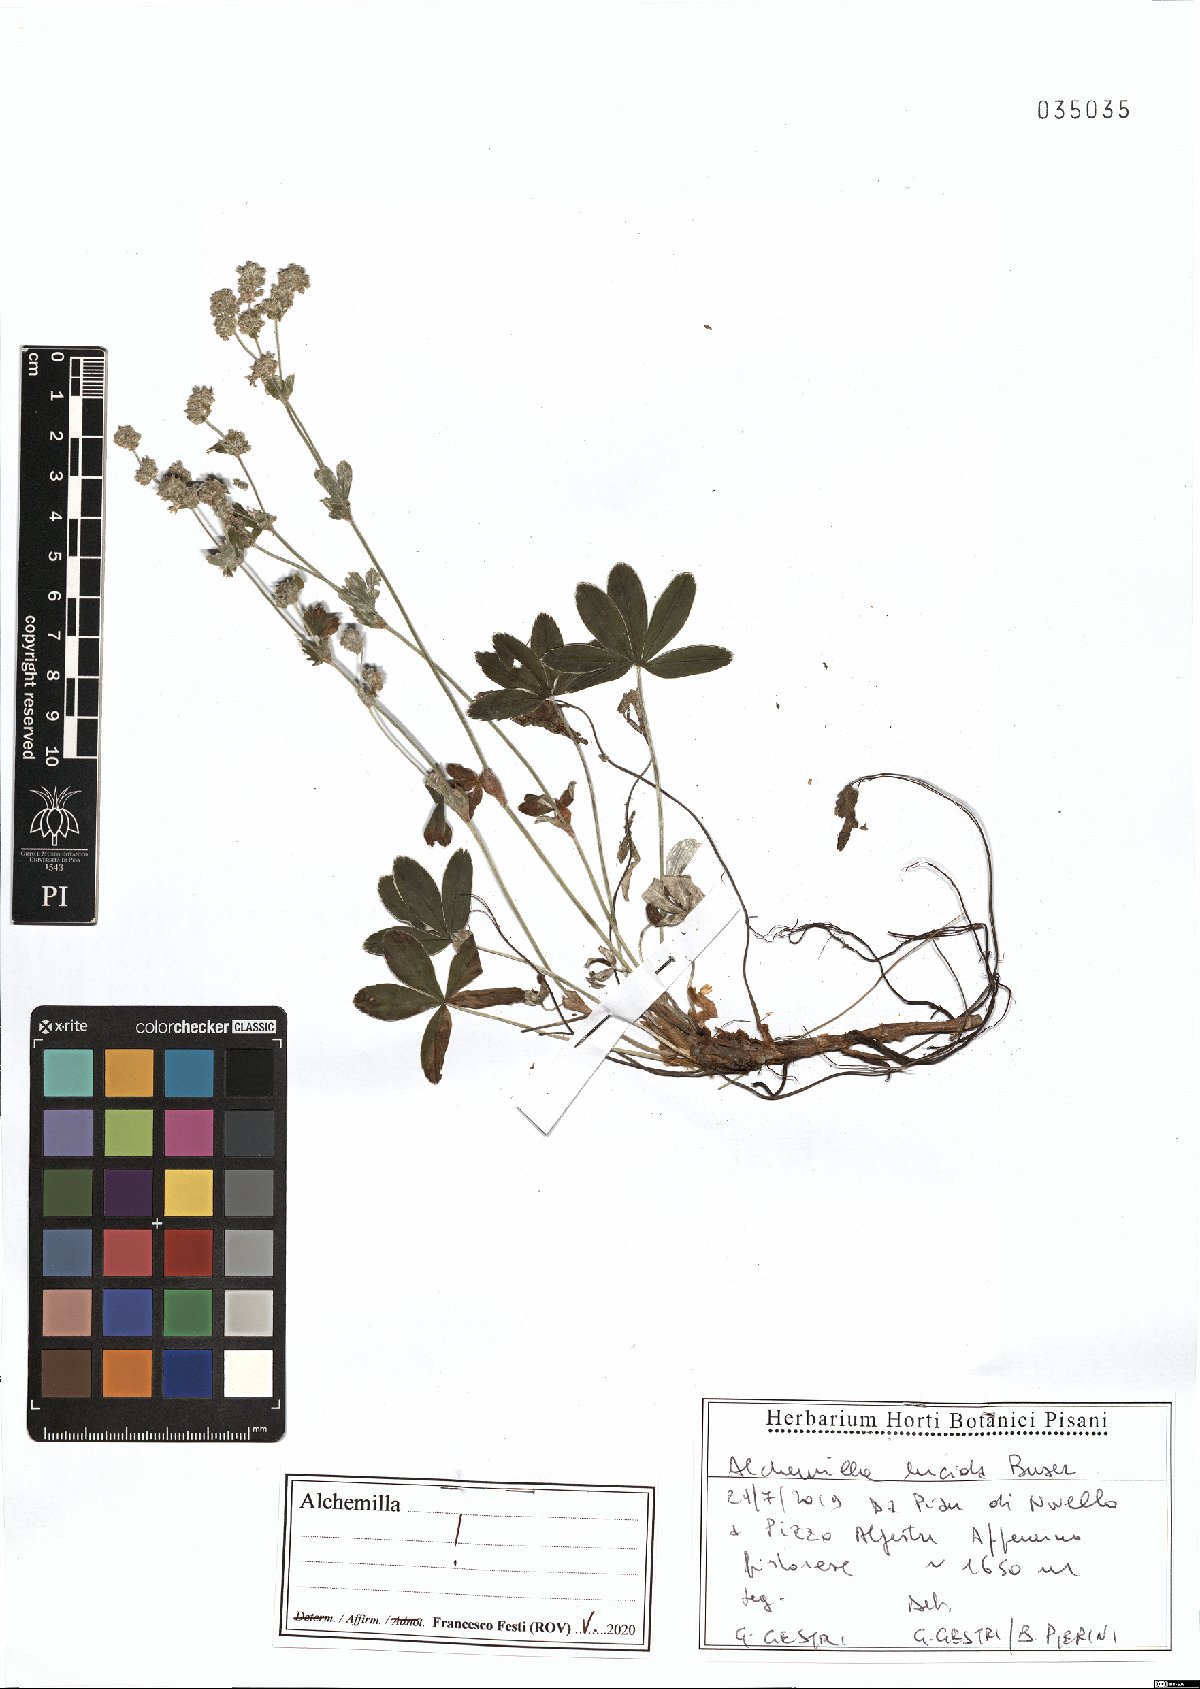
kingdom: Plantae
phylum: Tracheophyta
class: Magnoliopsida
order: Rosales
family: Rosaceae
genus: Alchemilla
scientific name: Alchemilla lucida
